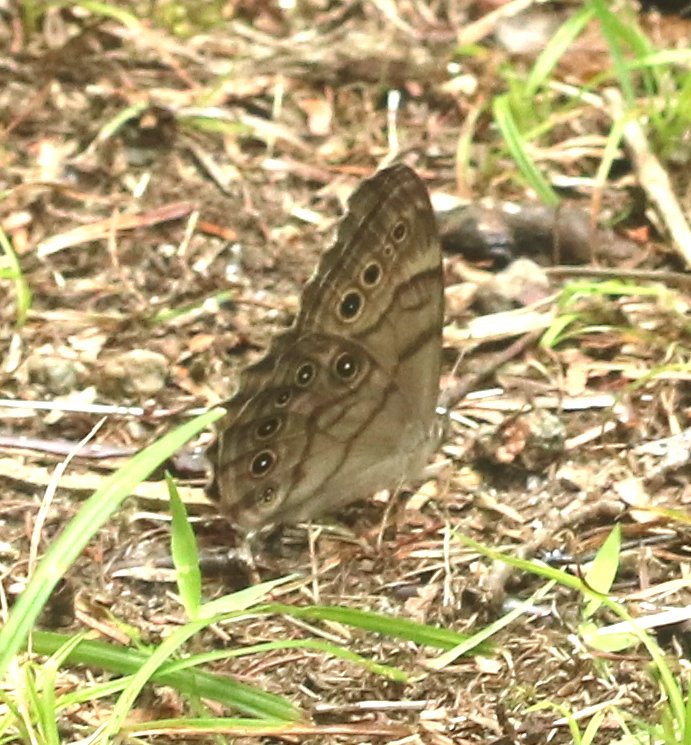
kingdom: Animalia
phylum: Arthropoda
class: Insecta
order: Lepidoptera
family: Nymphalidae
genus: Lethe
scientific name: Lethe anthedon
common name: Northern Pearly-Eye
